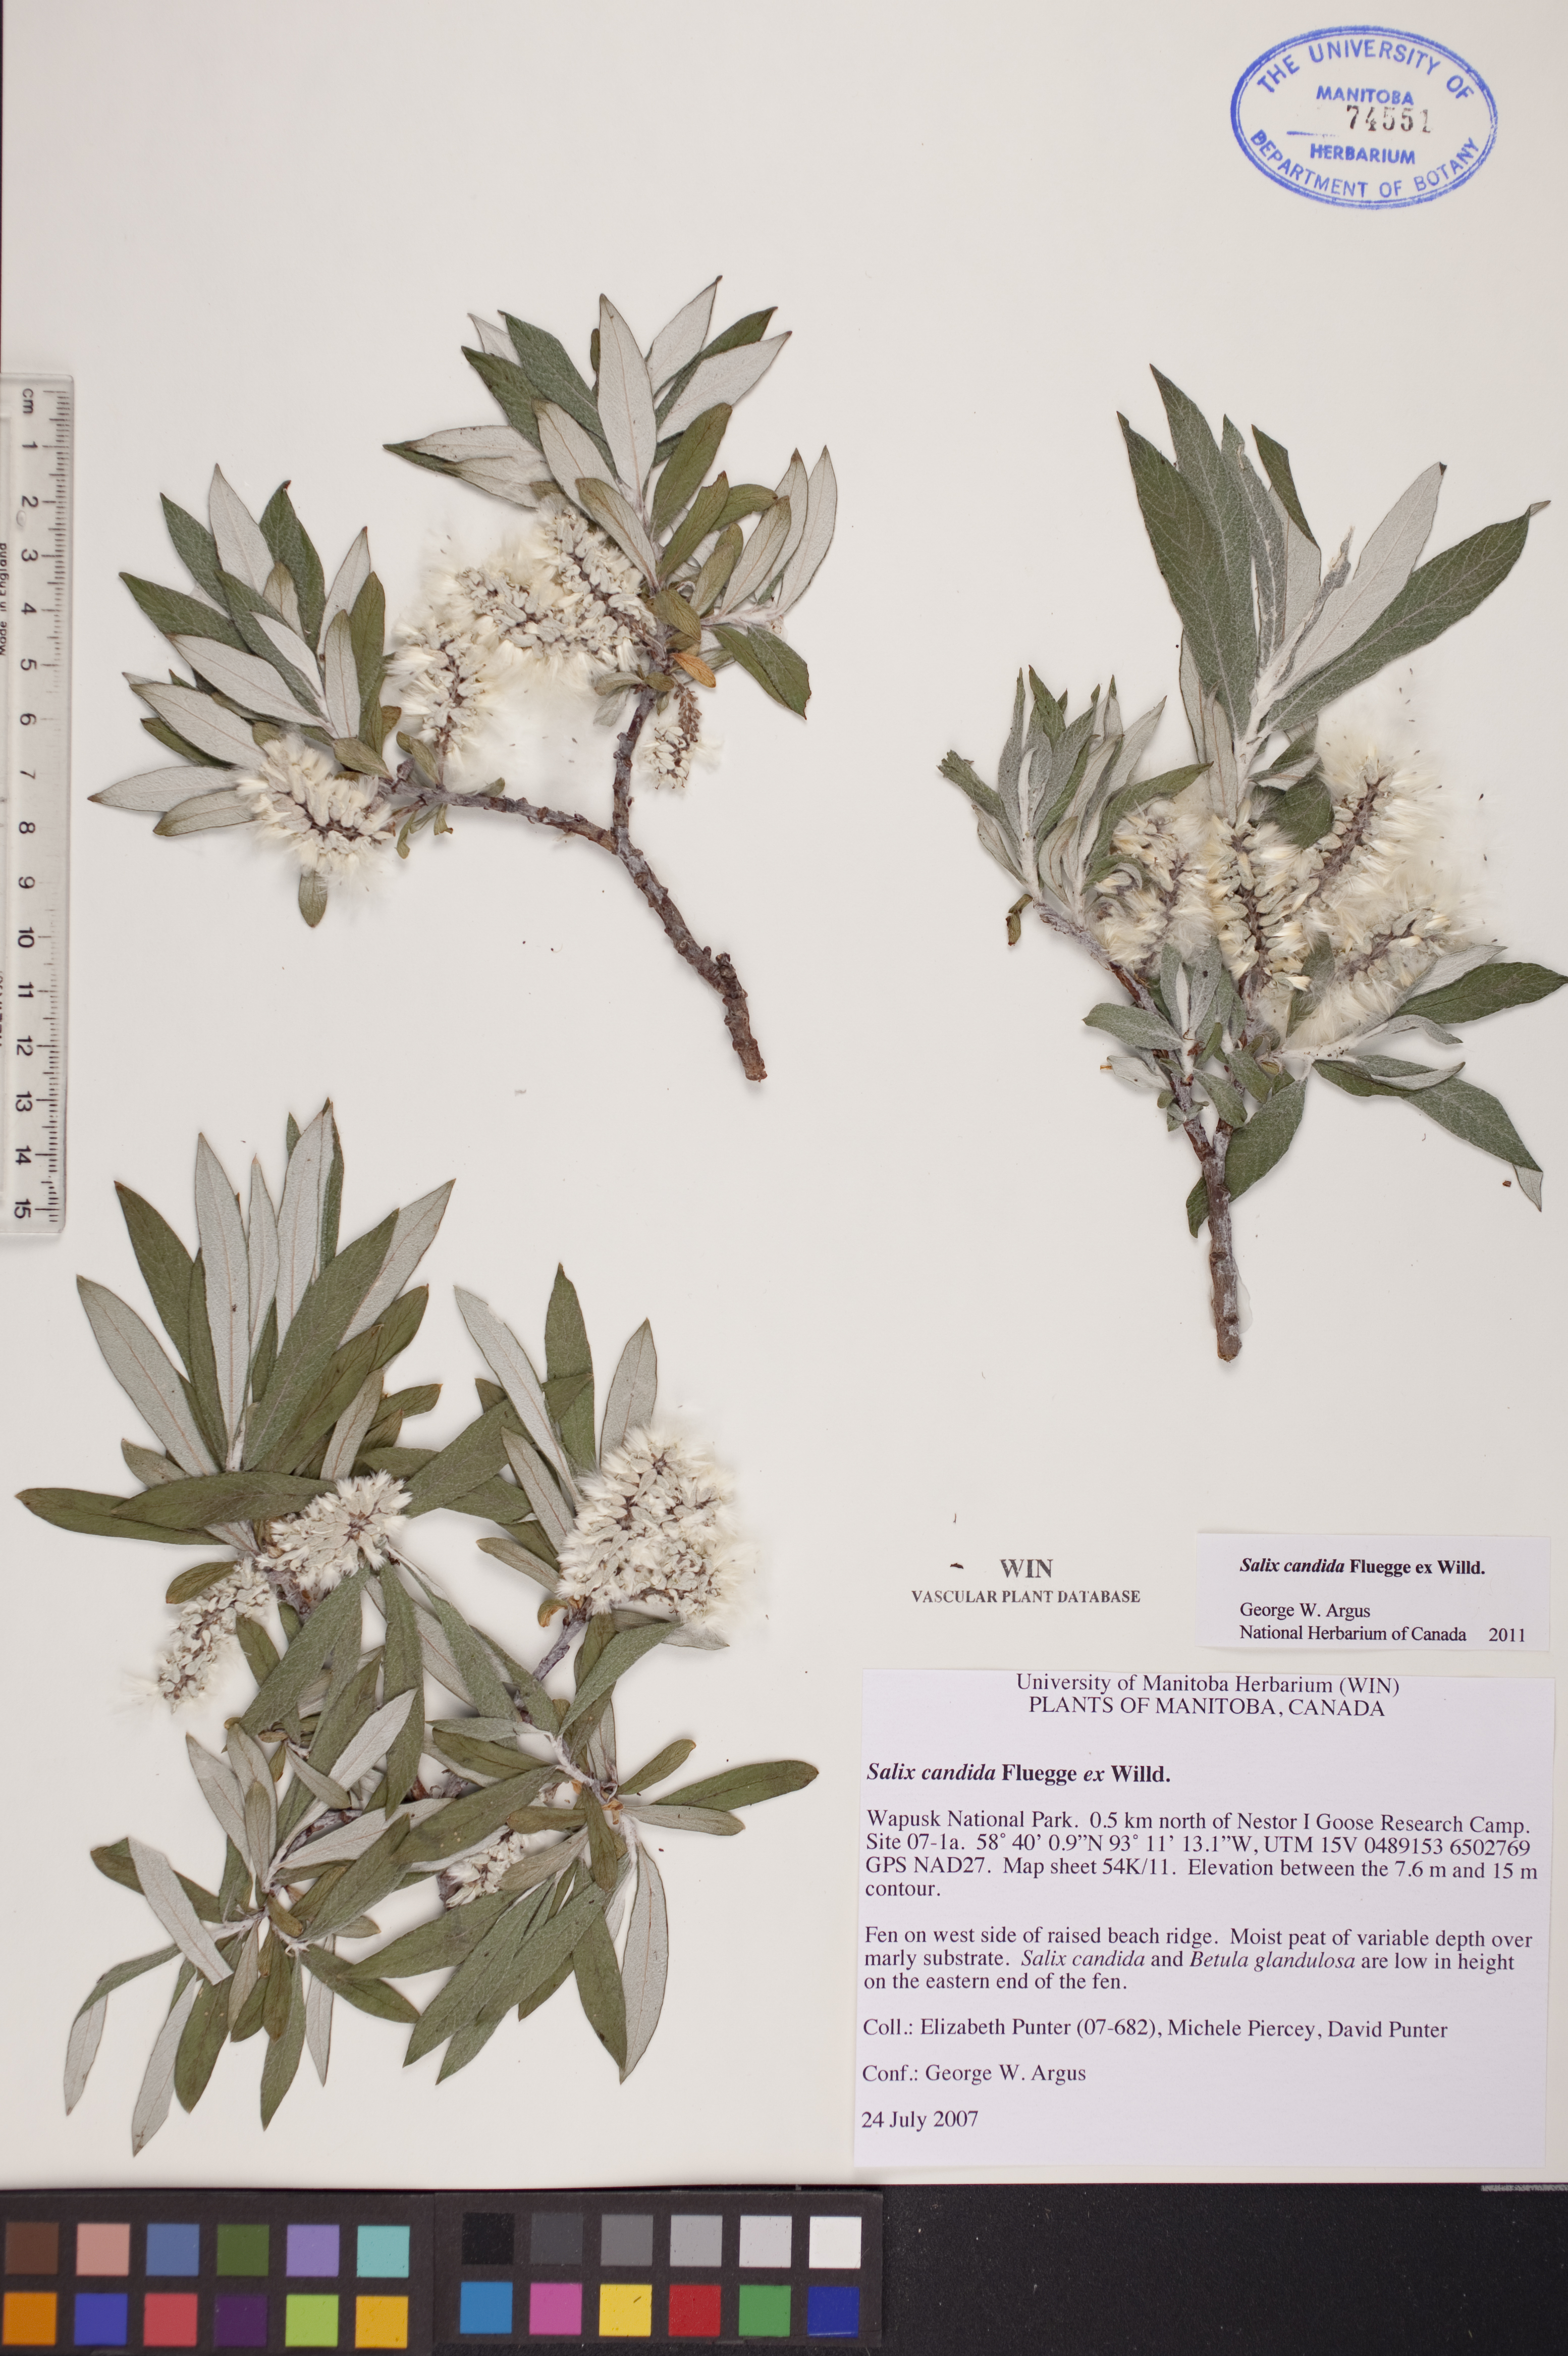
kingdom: Plantae
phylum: Tracheophyta
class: Magnoliopsida
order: Malpighiales
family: Salicaceae
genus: Salix
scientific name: Salix candida
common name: Hoary willow
